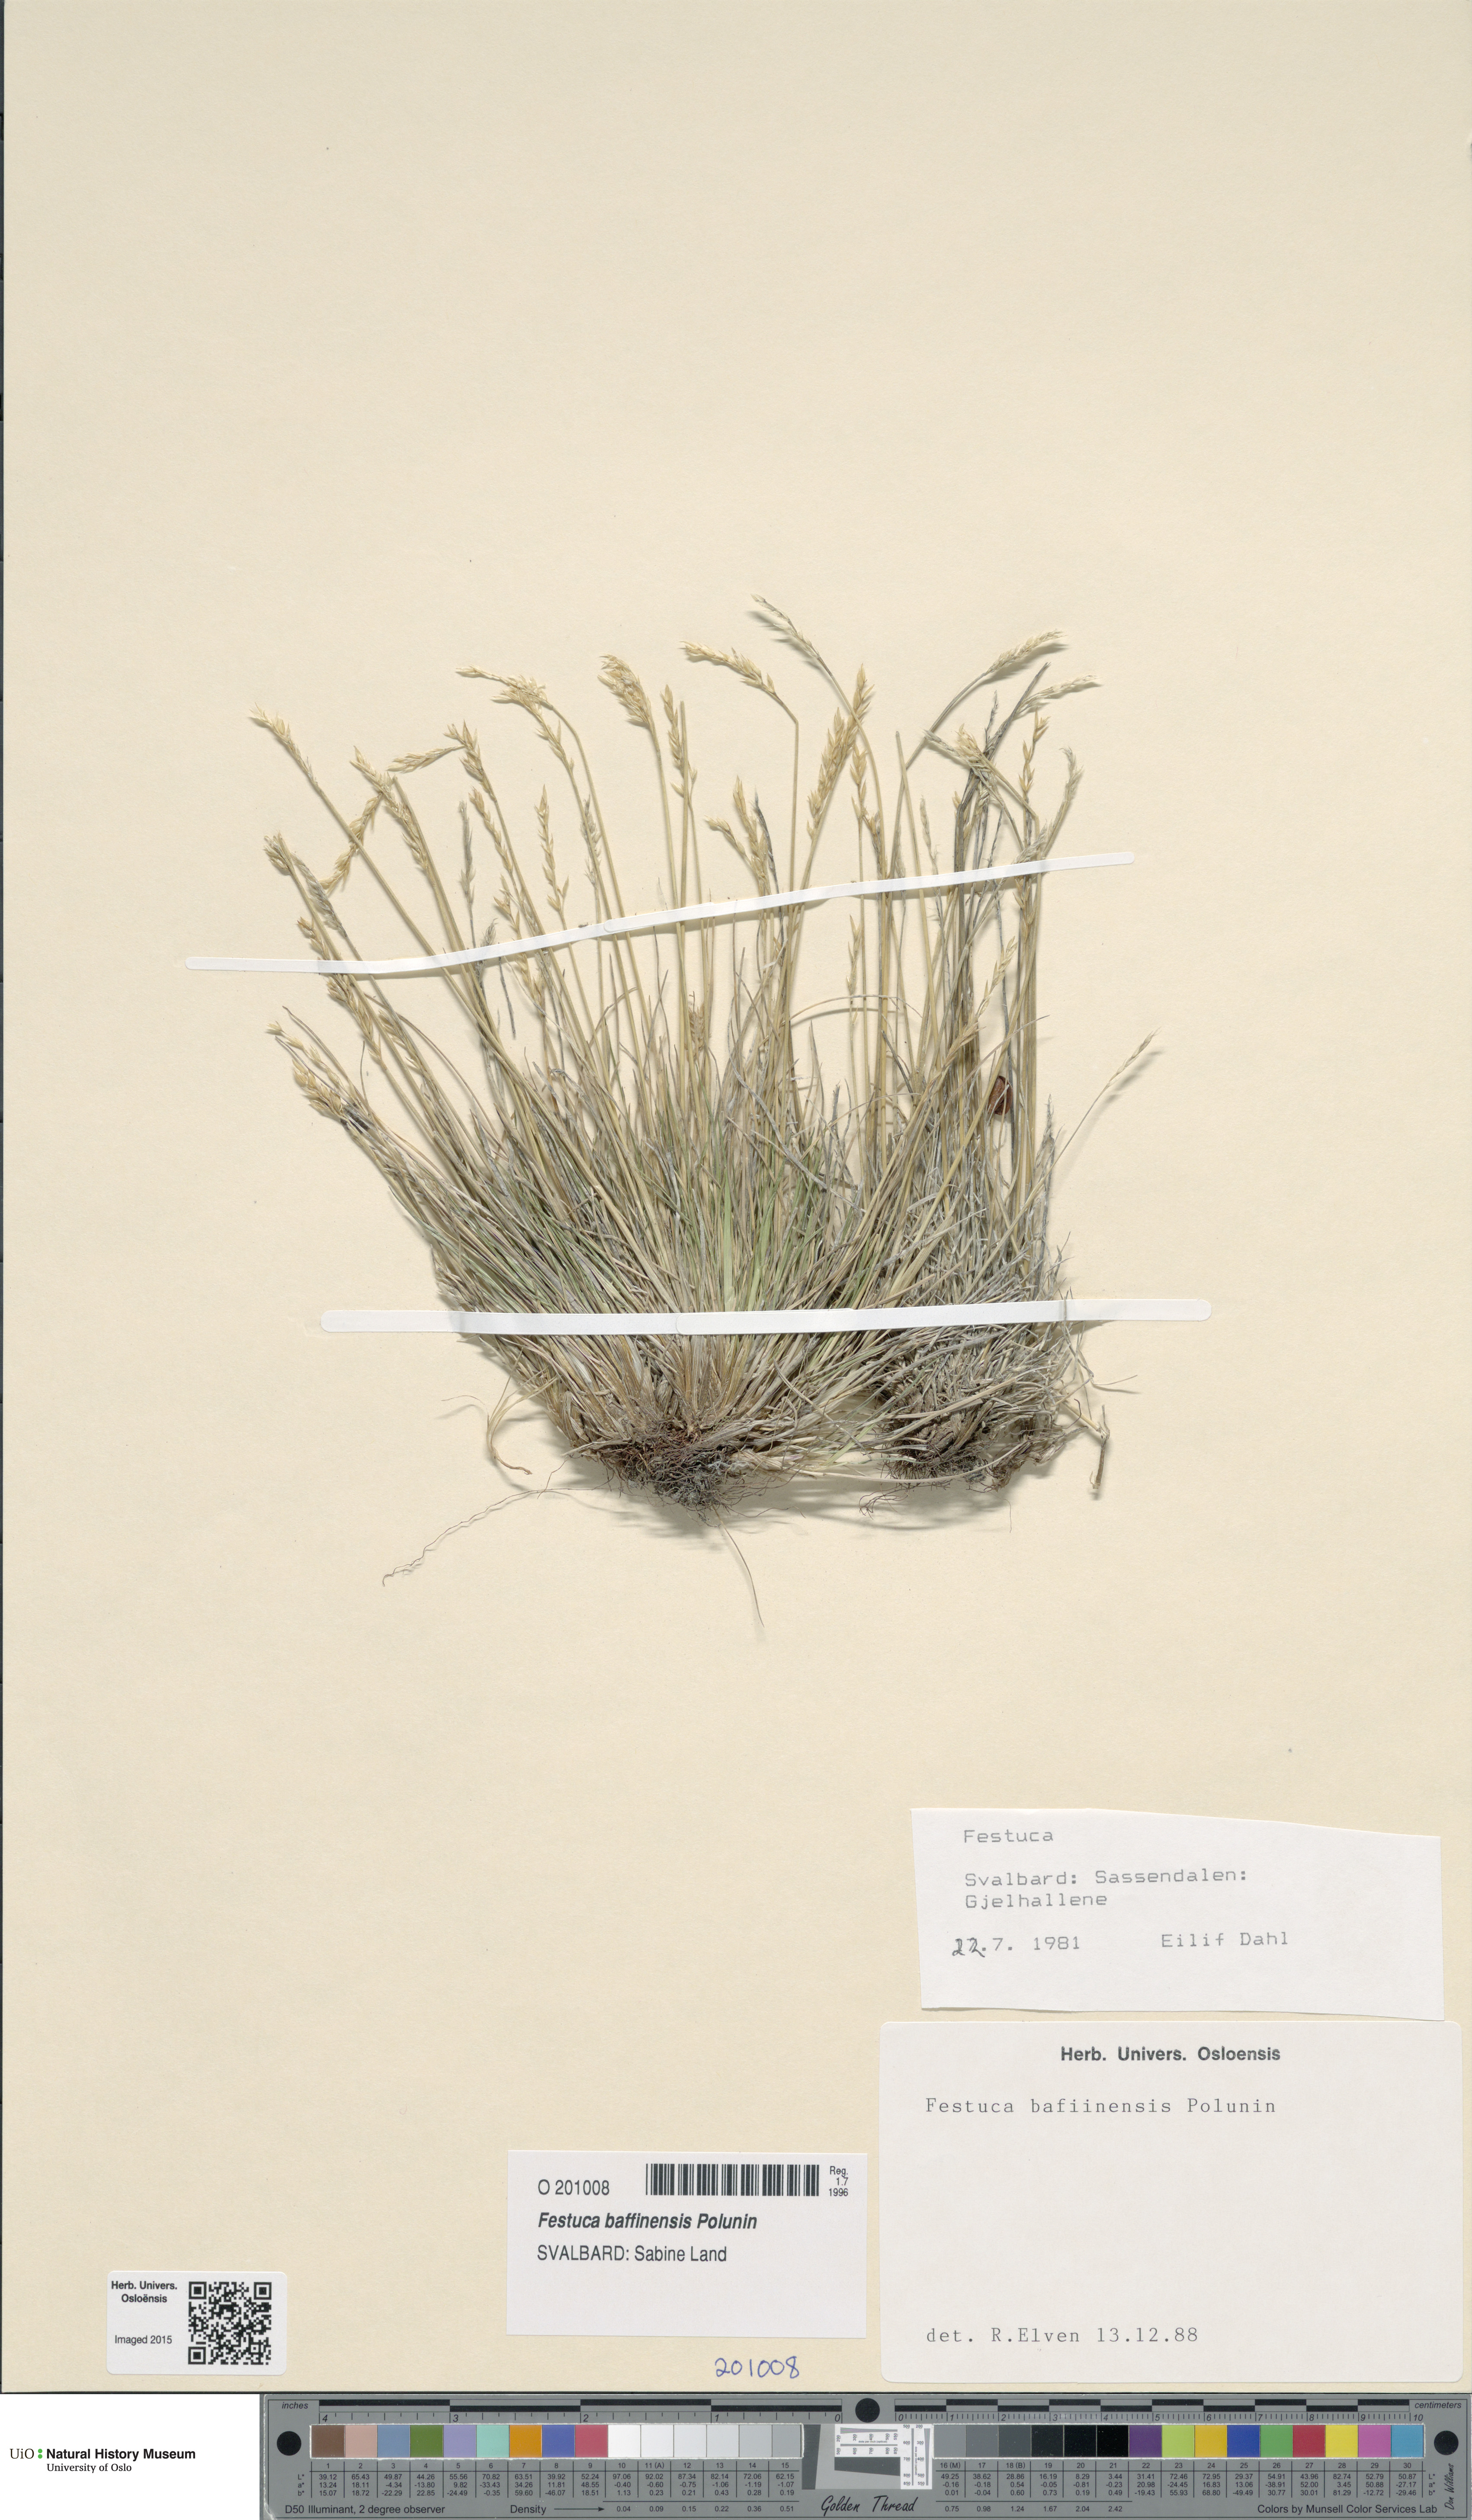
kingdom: Plantae
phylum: Tracheophyta
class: Liliopsida
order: Poales
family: Poaceae
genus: Festuca
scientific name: Festuca baffinensis
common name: Baffin island fescue
